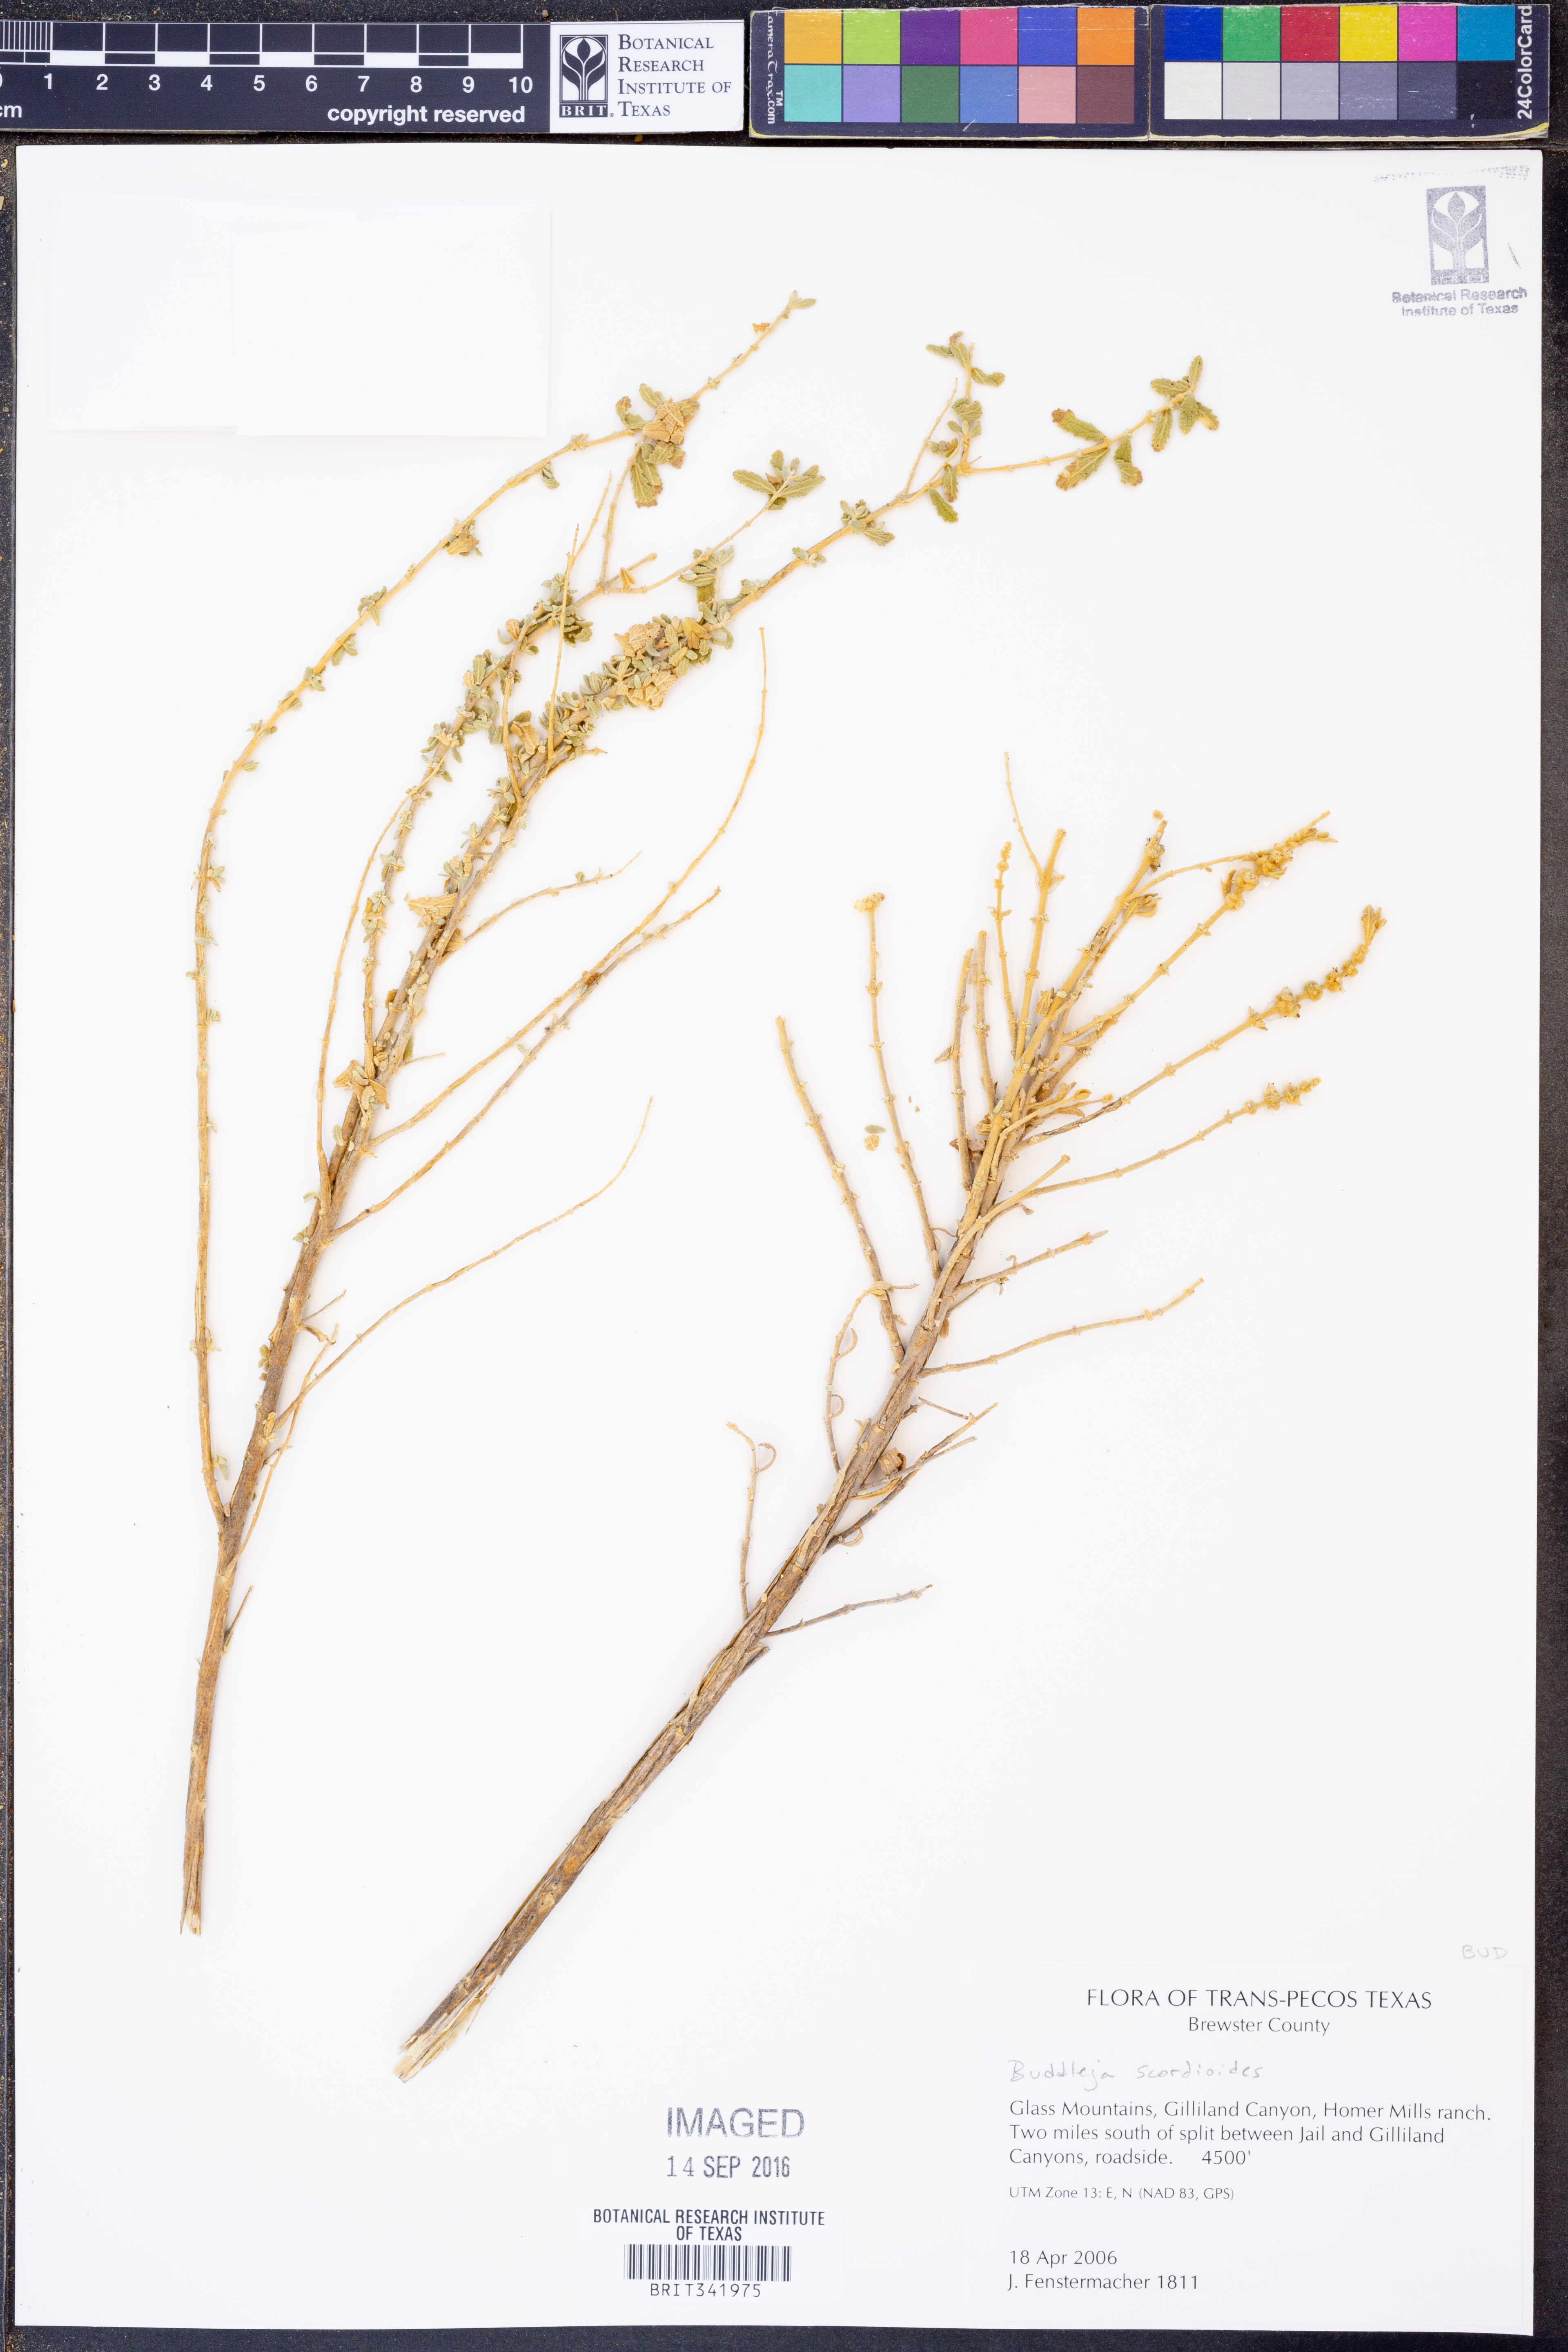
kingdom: Plantae
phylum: Tracheophyta
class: Magnoliopsida
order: Lamiales
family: Scrophulariaceae
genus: Buddleja
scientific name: Buddleja scordioides
